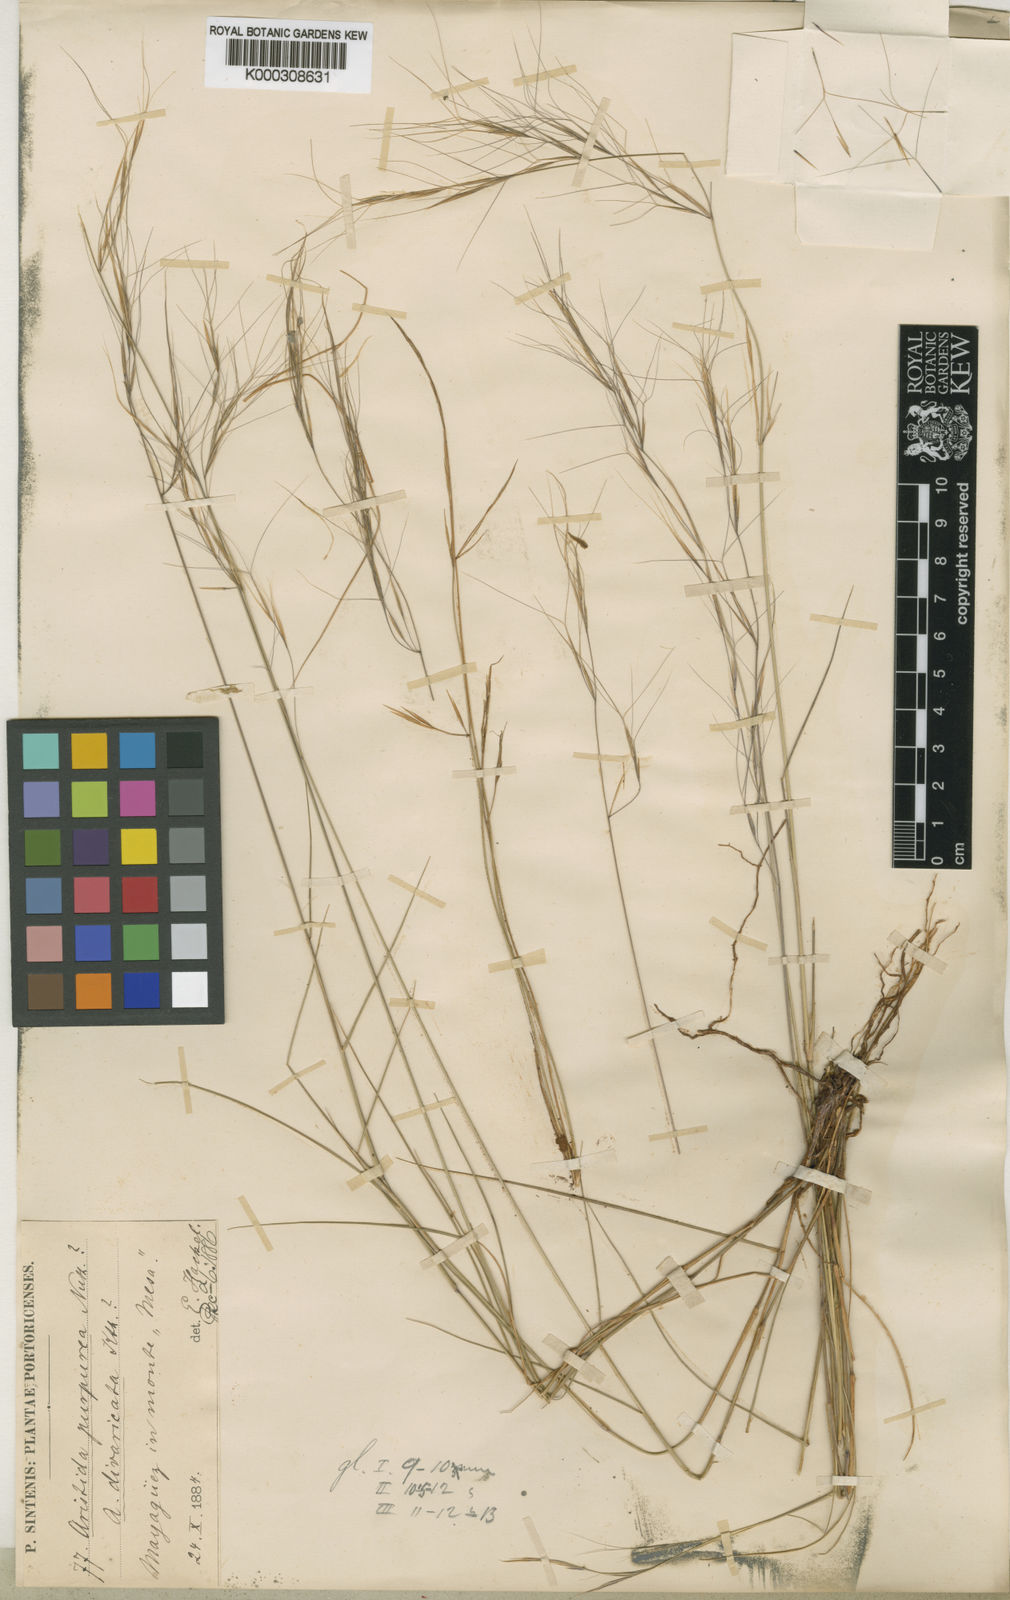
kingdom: Plantae
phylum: Tracheophyta
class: Liliopsida
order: Poales
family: Poaceae
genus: Aristida
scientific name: Aristida portoricensis
